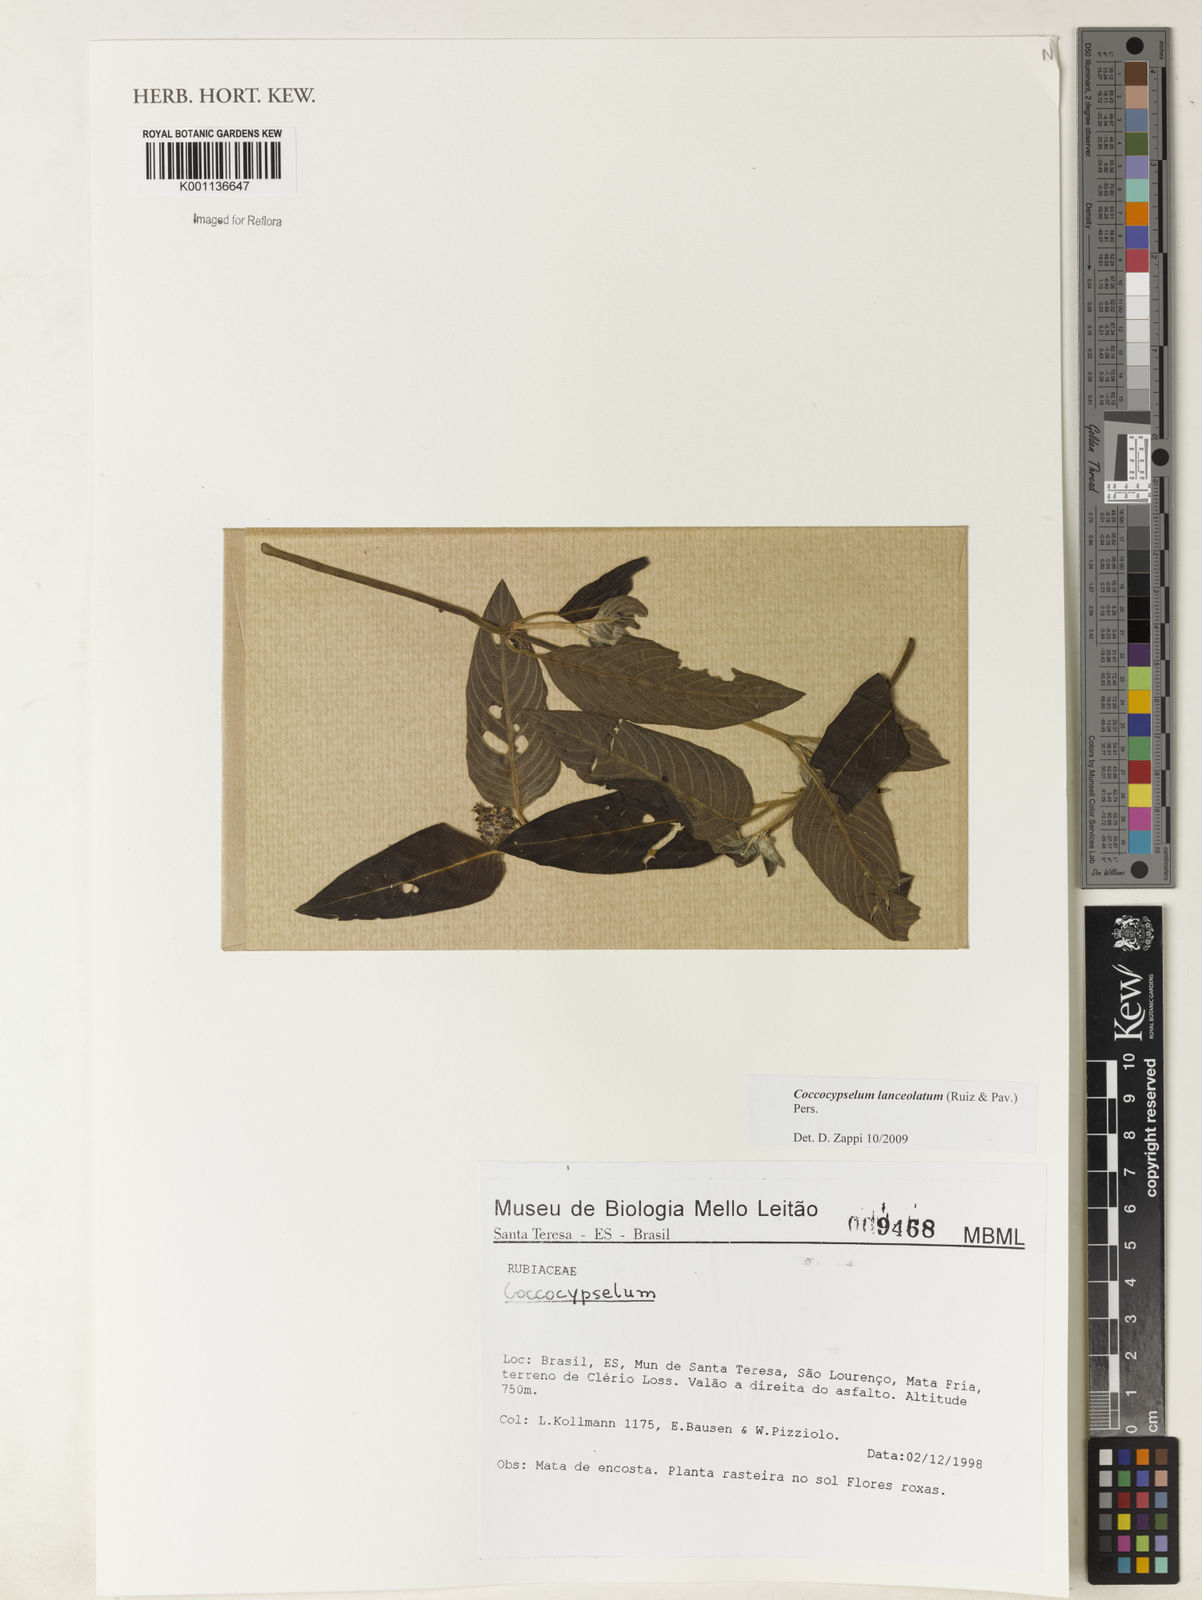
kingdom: Plantae
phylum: Tracheophyta
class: Magnoliopsida
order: Gentianales
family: Rubiaceae
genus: Coccocypselum
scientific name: Coccocypselum lanceolatum
